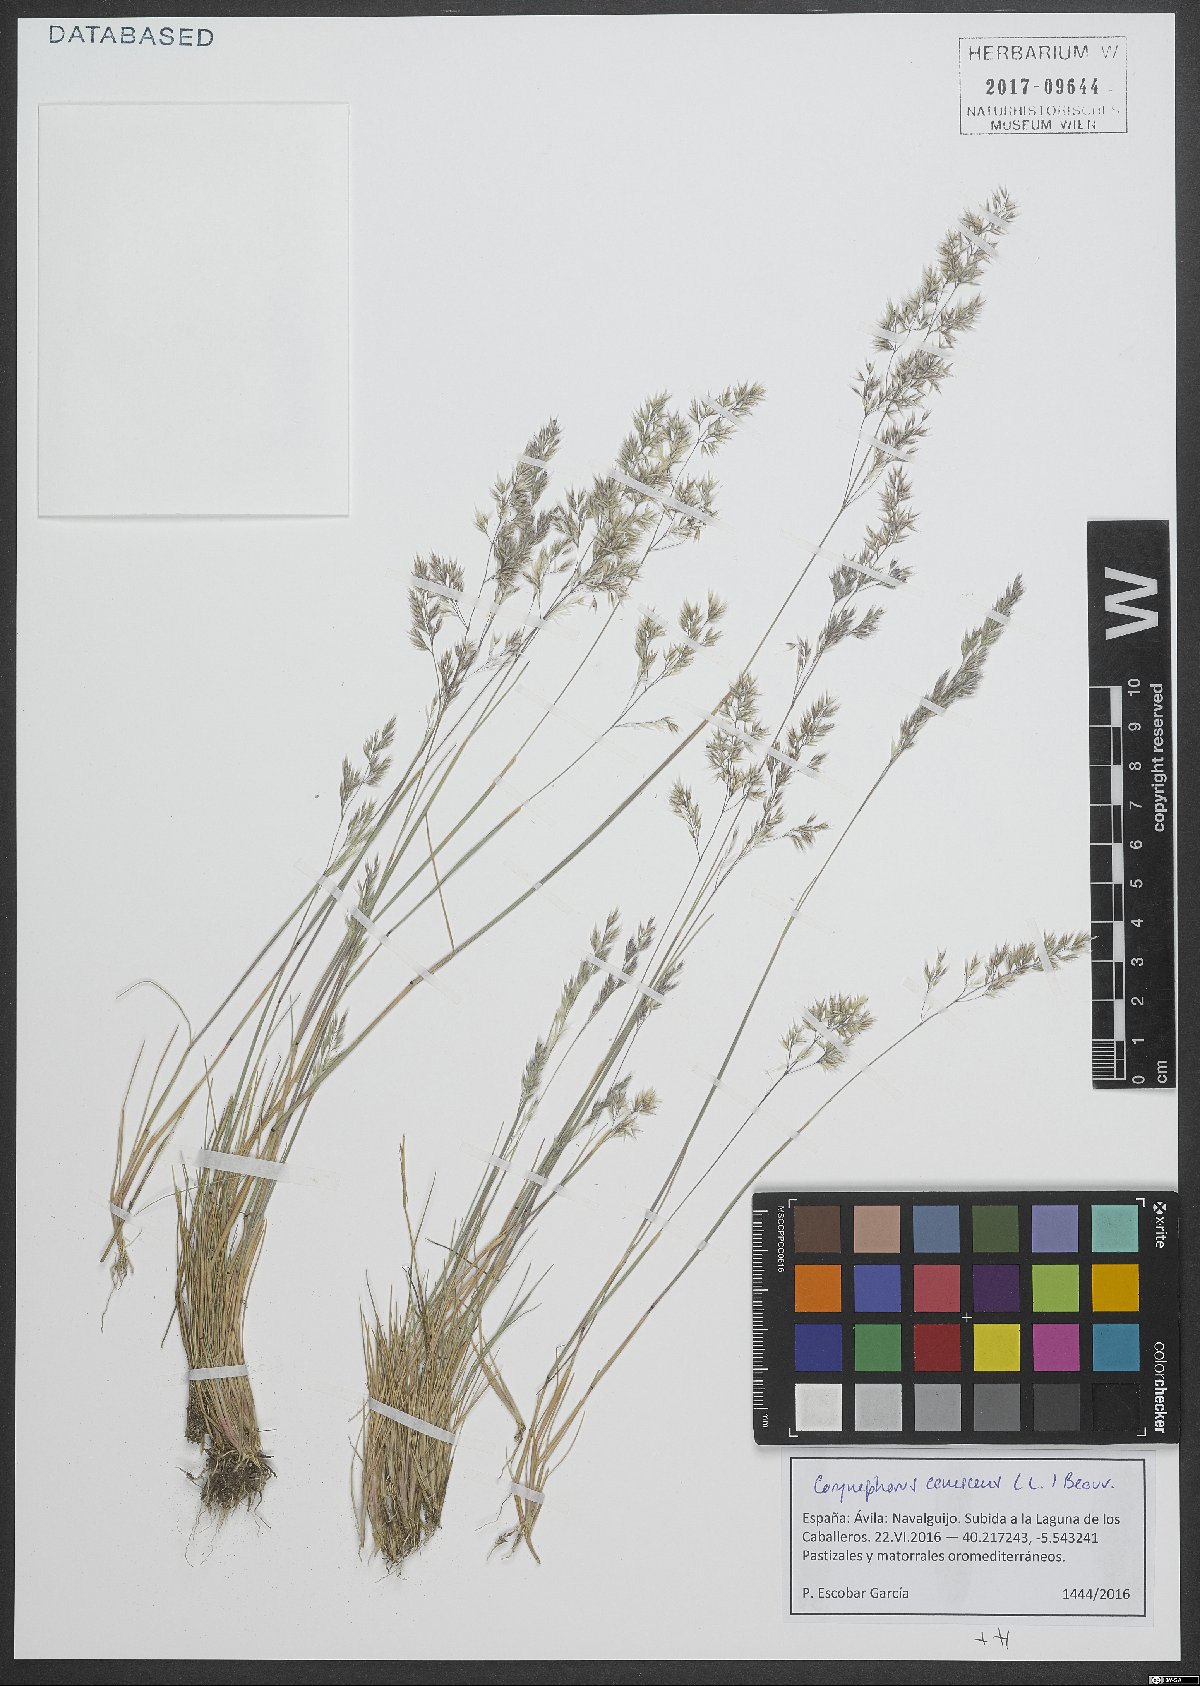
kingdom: Plantae
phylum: Tracheophyta
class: Liliopsida
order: Poales
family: Poaceae
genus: Corynephorus
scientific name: Corynephorus canescens
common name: Grey hair-grass
